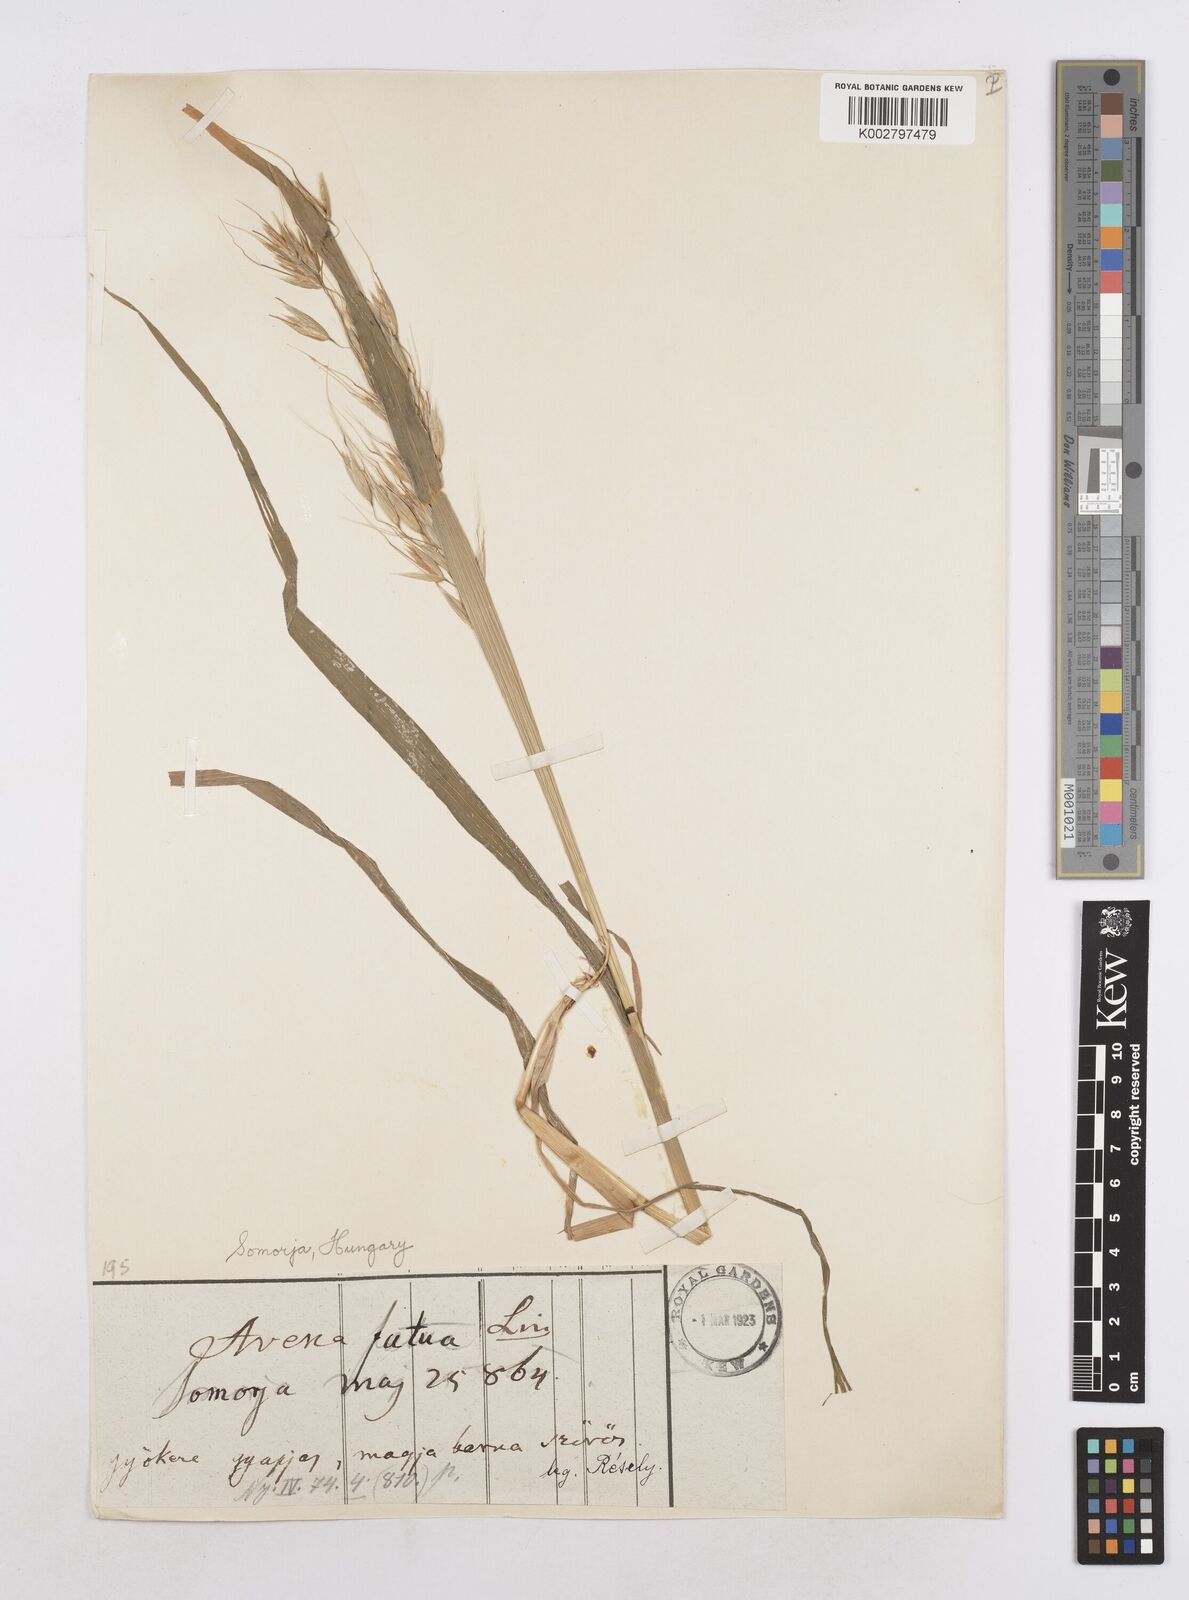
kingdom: Plantae
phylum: Tracheophyta
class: Liliopsida
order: Poales
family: Poaceae
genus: Avena
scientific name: Avena fatua
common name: Wild oat
